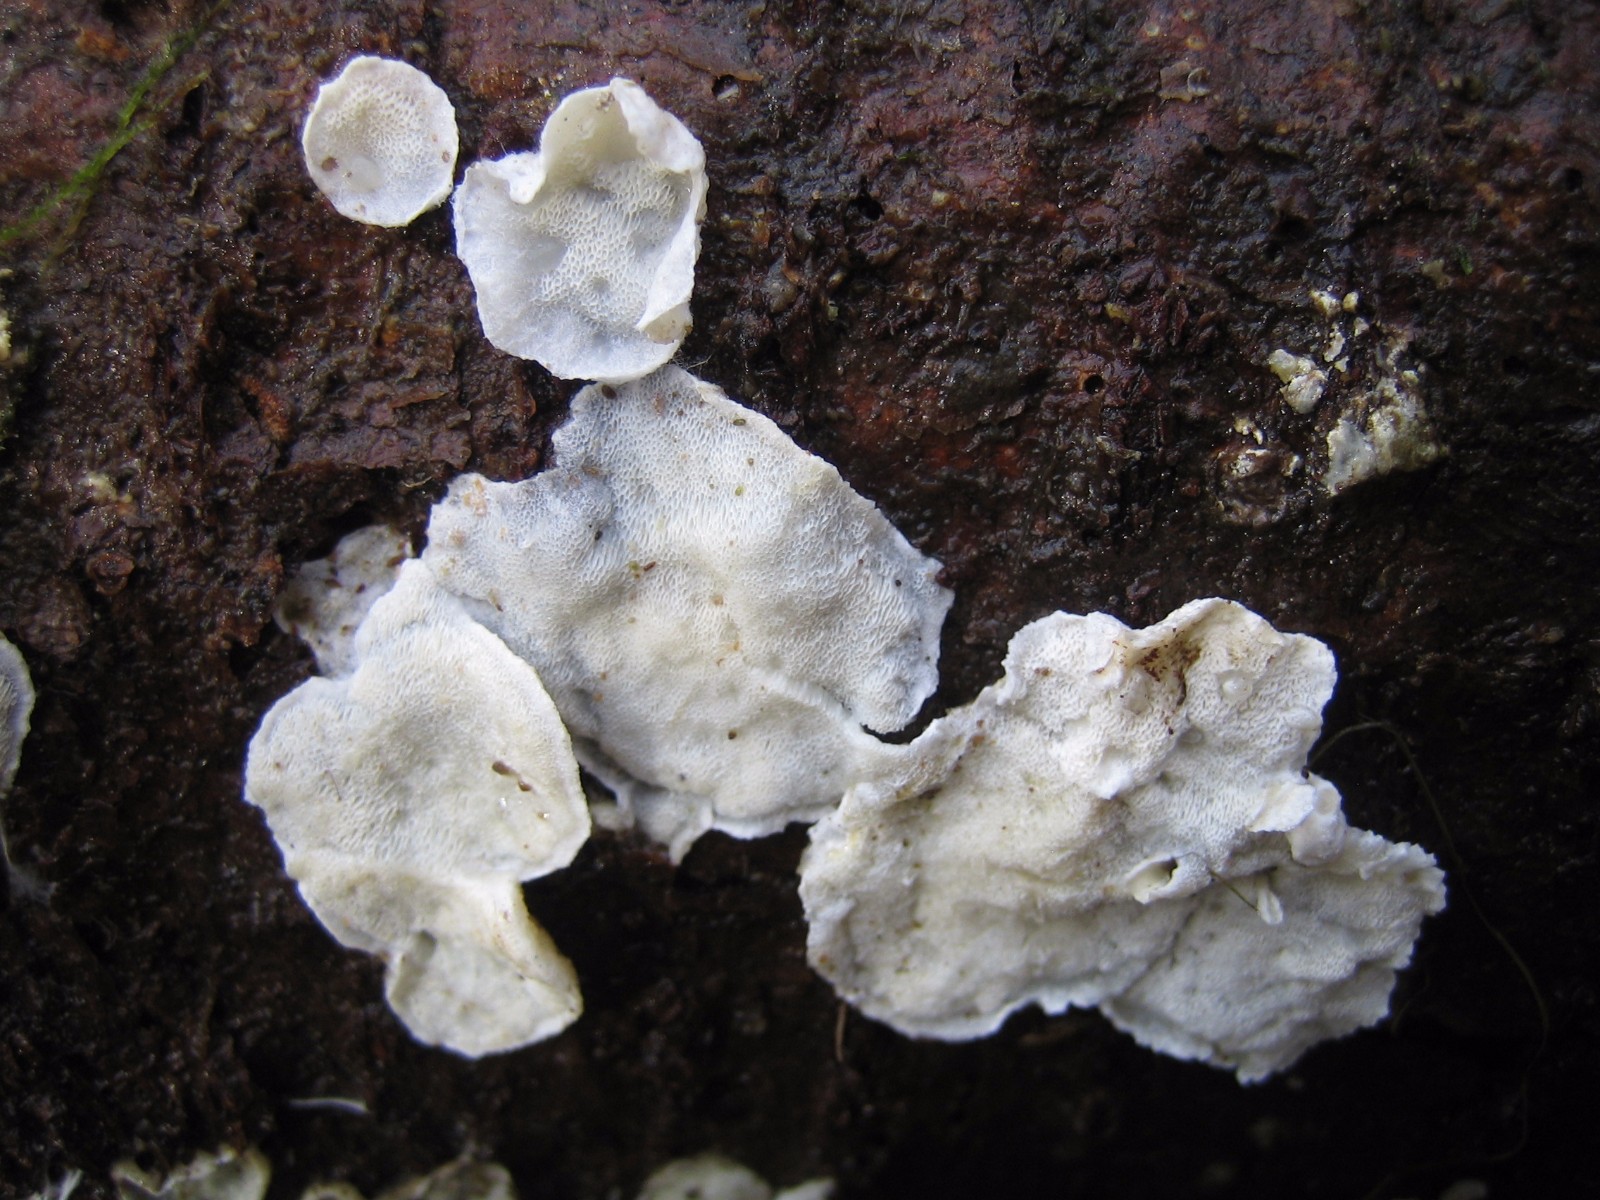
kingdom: Fungi
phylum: Basidiomycota
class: Agaricomycetes
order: Polyporales
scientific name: Polyporales
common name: poresvampordenen
